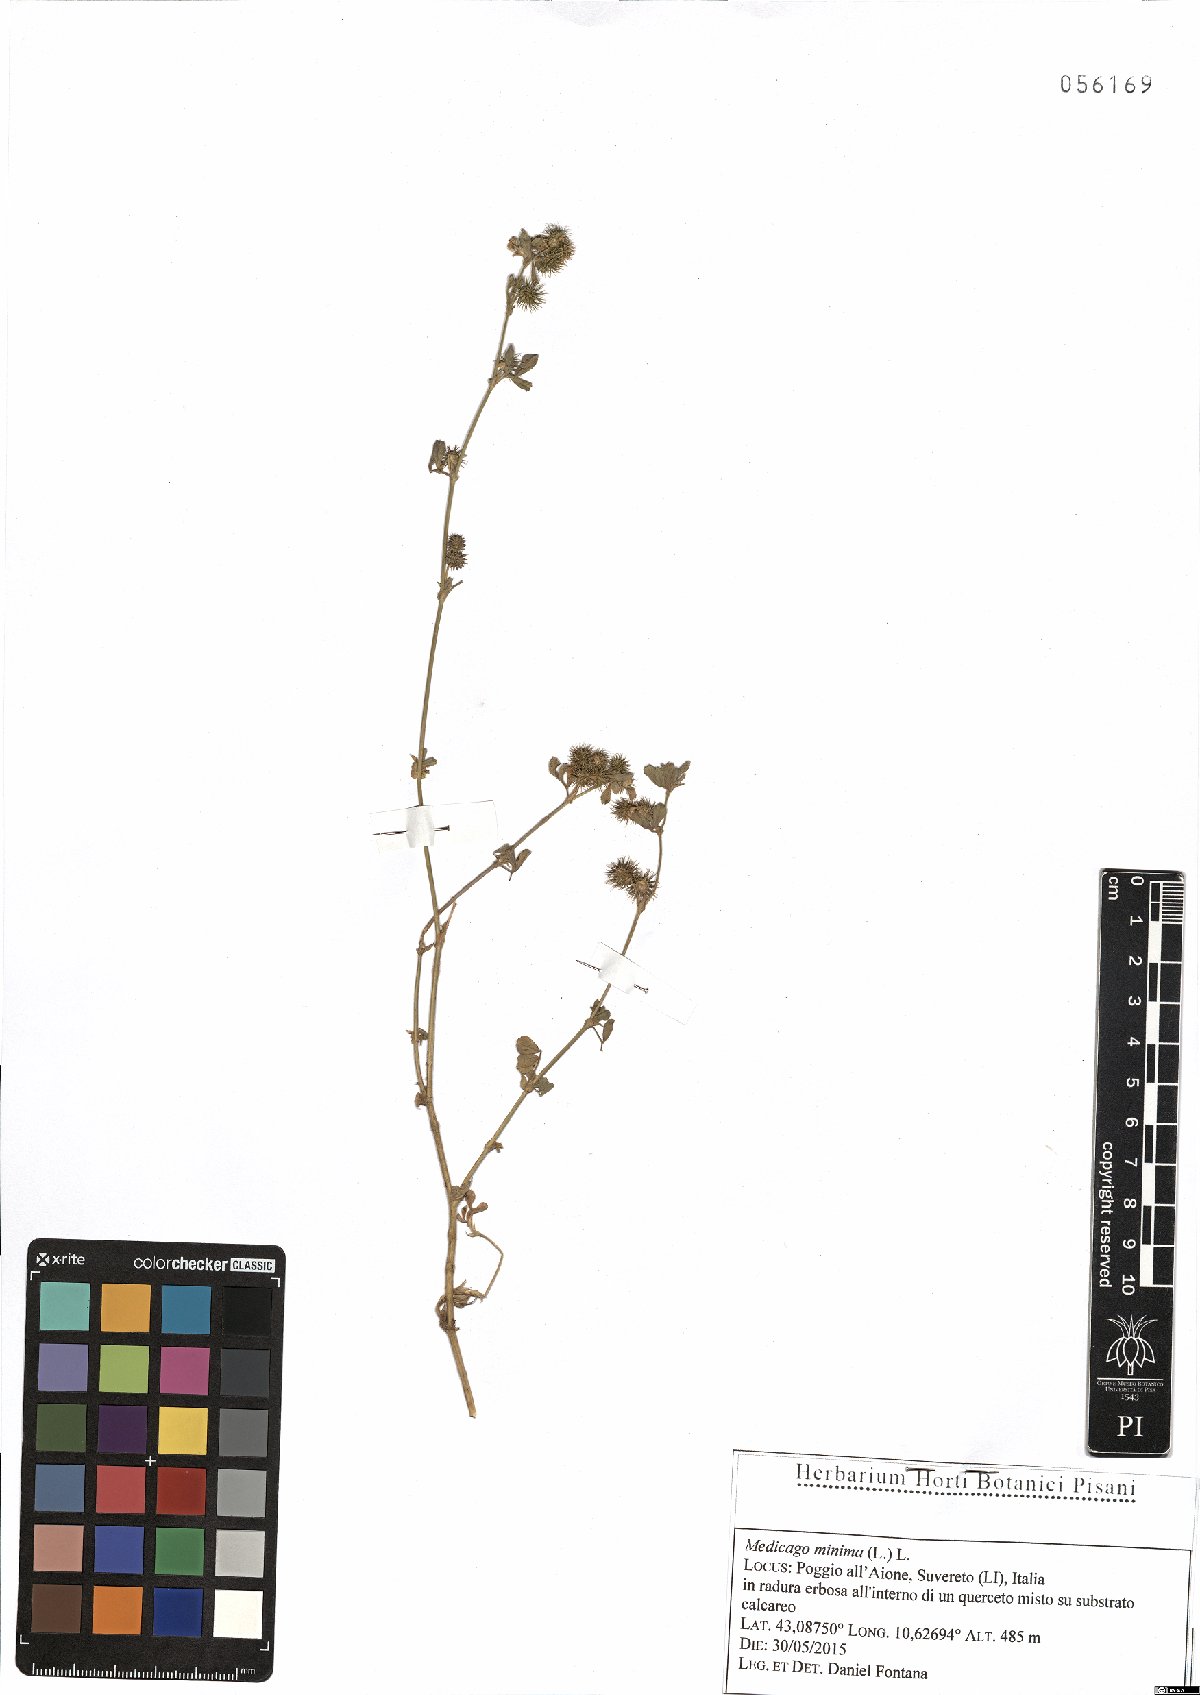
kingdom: Plantae
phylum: Tracheophyta
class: Magnoliopsida
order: Fabales
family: Fabaceae
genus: Medicago
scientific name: Medicago minima
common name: Little bur-clover
